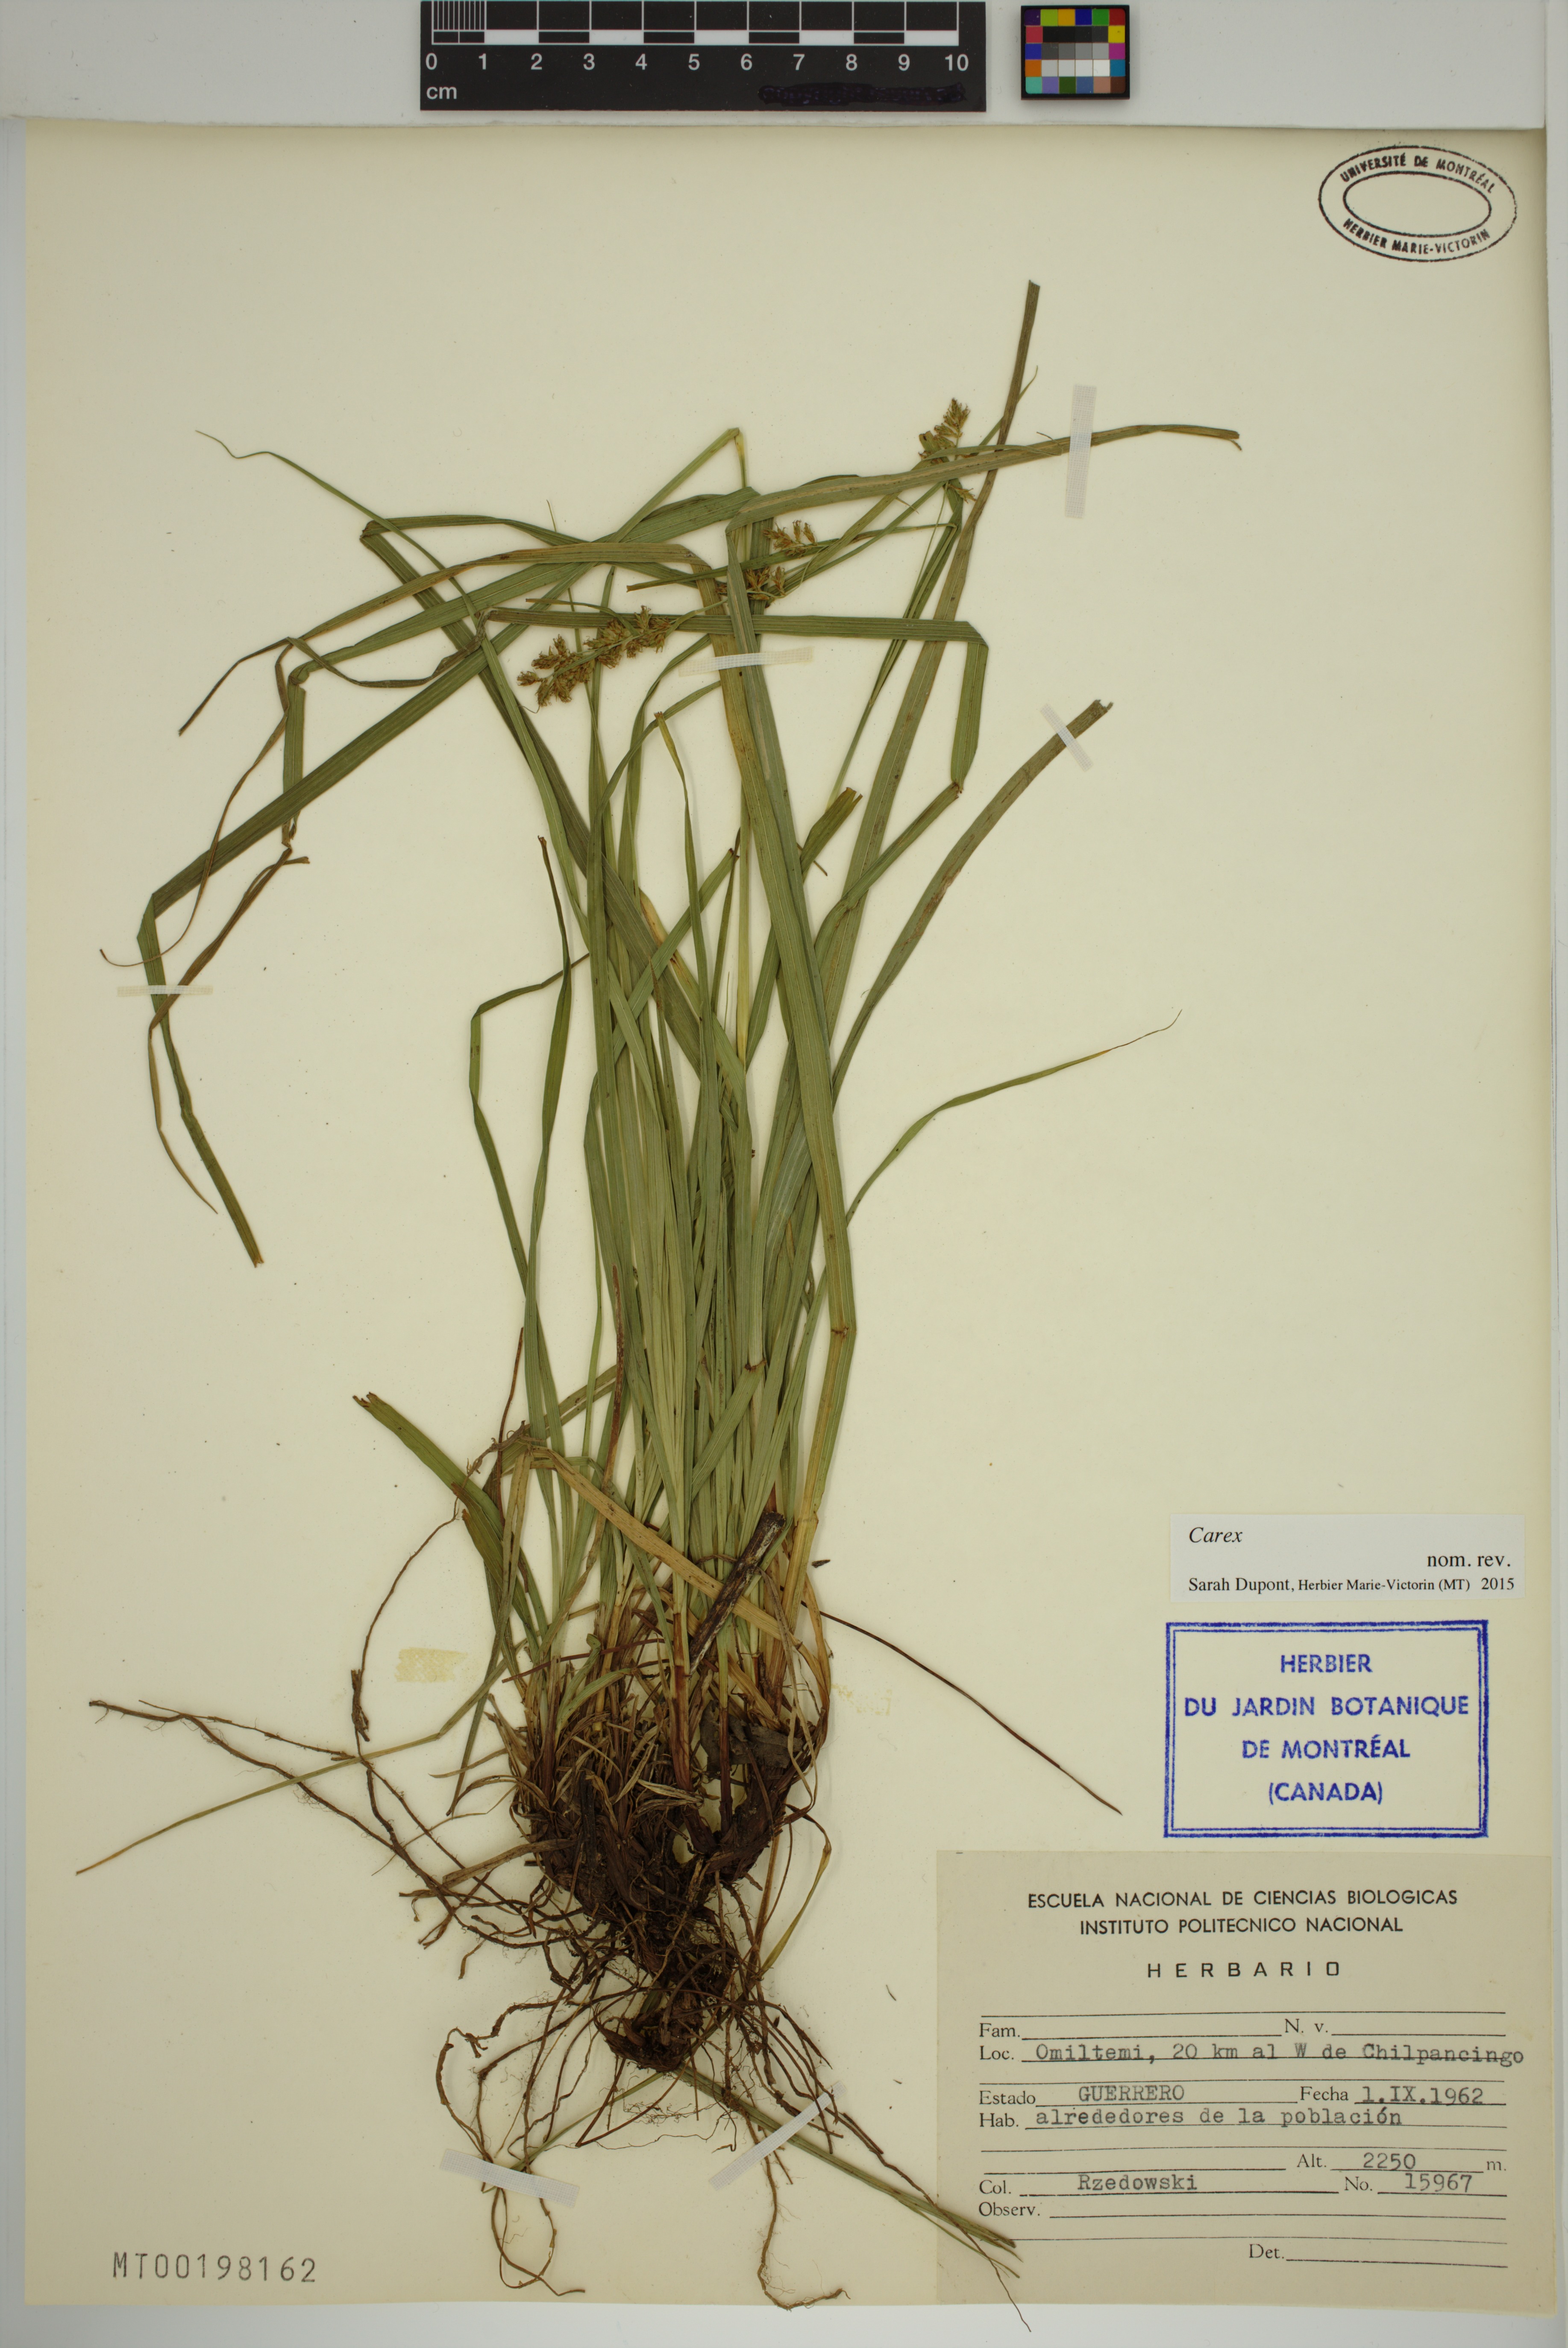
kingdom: Plantae
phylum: Tracheophyta
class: Liliopsida
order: Poales
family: Cyperaceae
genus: Carex
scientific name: Carex
